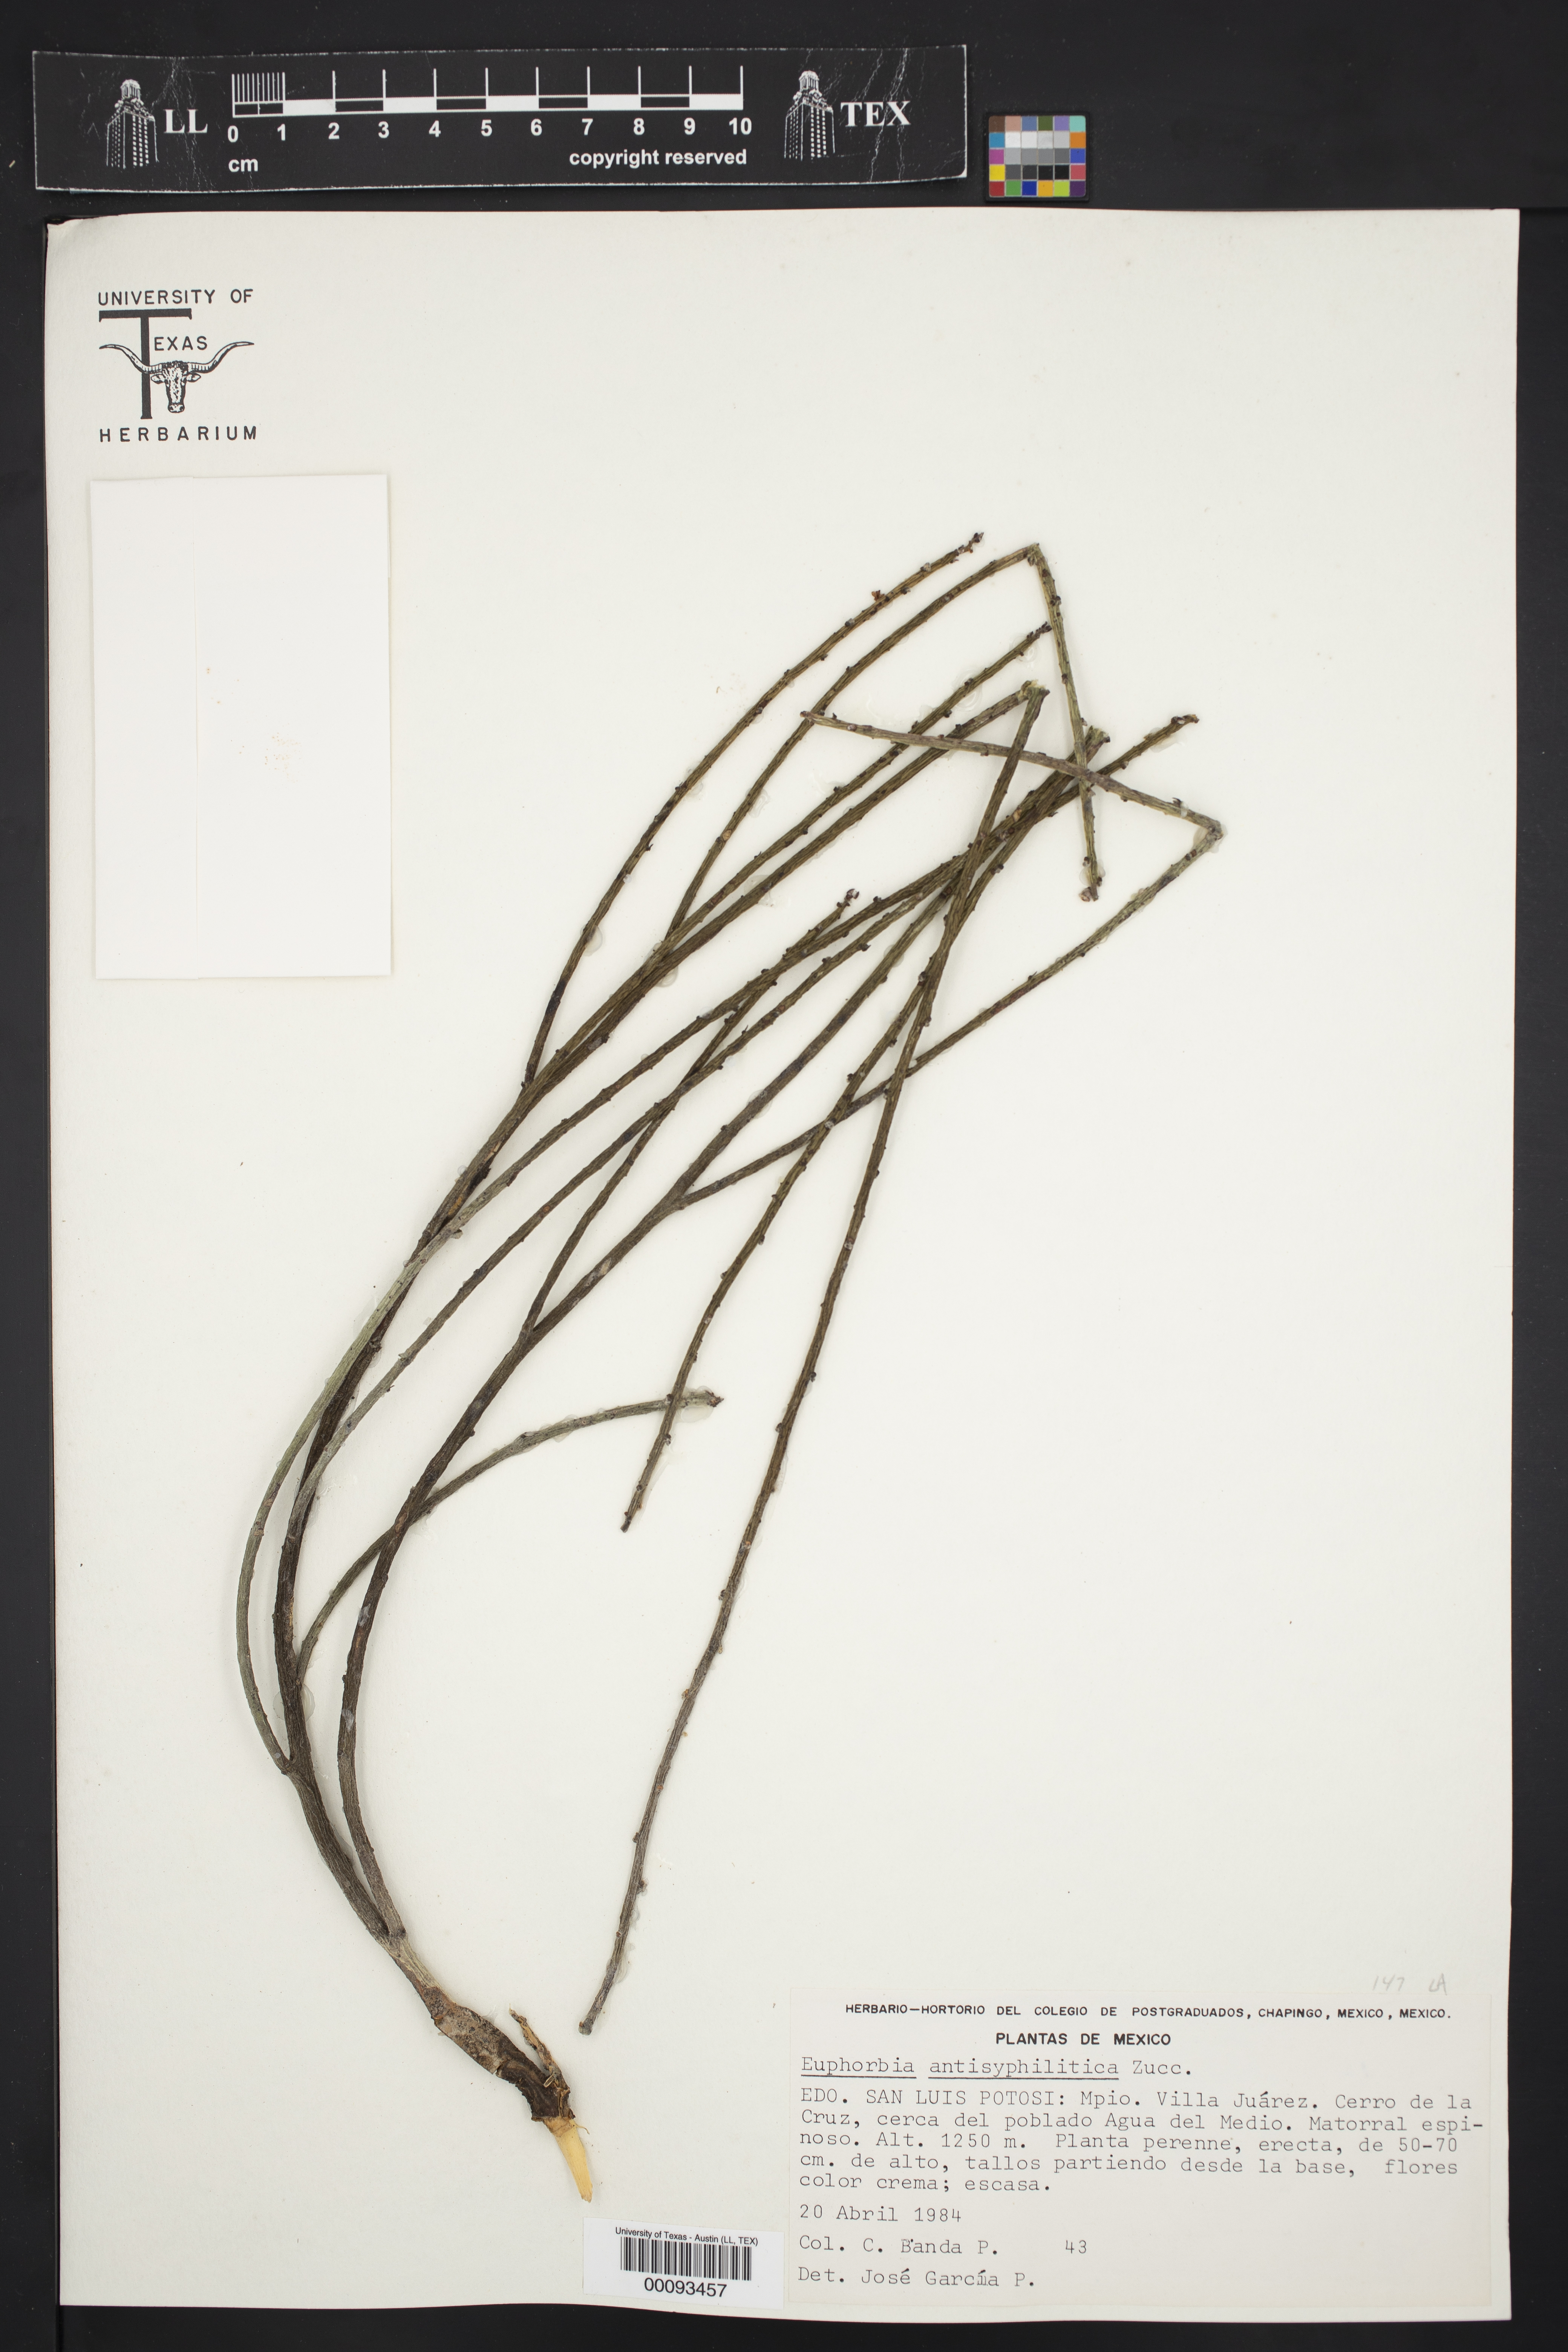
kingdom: Plantae
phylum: Tracheophyta
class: Magnoliopsida
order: Malpighiales
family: Euphorbiaceae
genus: Euphorbia
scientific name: Euphorbia antisyphilitica
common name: Candelilla
